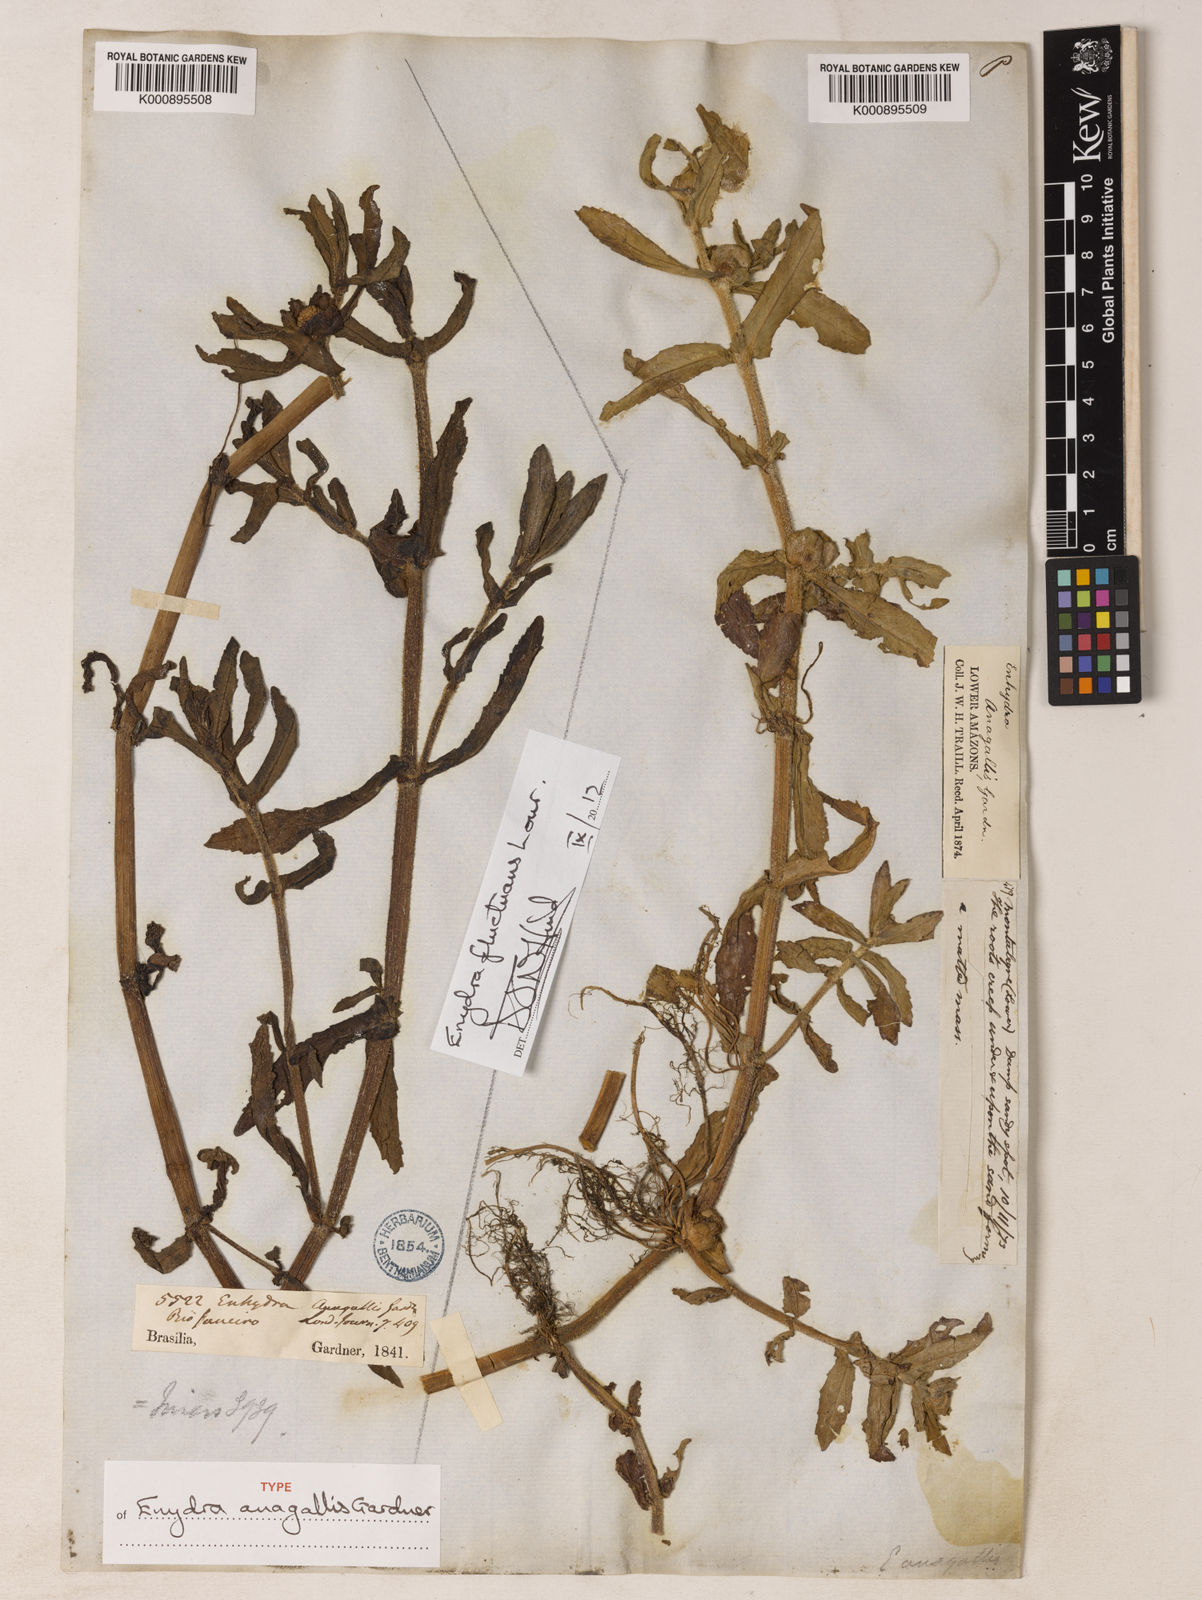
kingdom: Plantae
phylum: Tracheophyta
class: Magnoliopsida
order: Asterales
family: Asteraceae
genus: Enydra
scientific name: Enydra fluctuans
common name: Buffalo spinach
